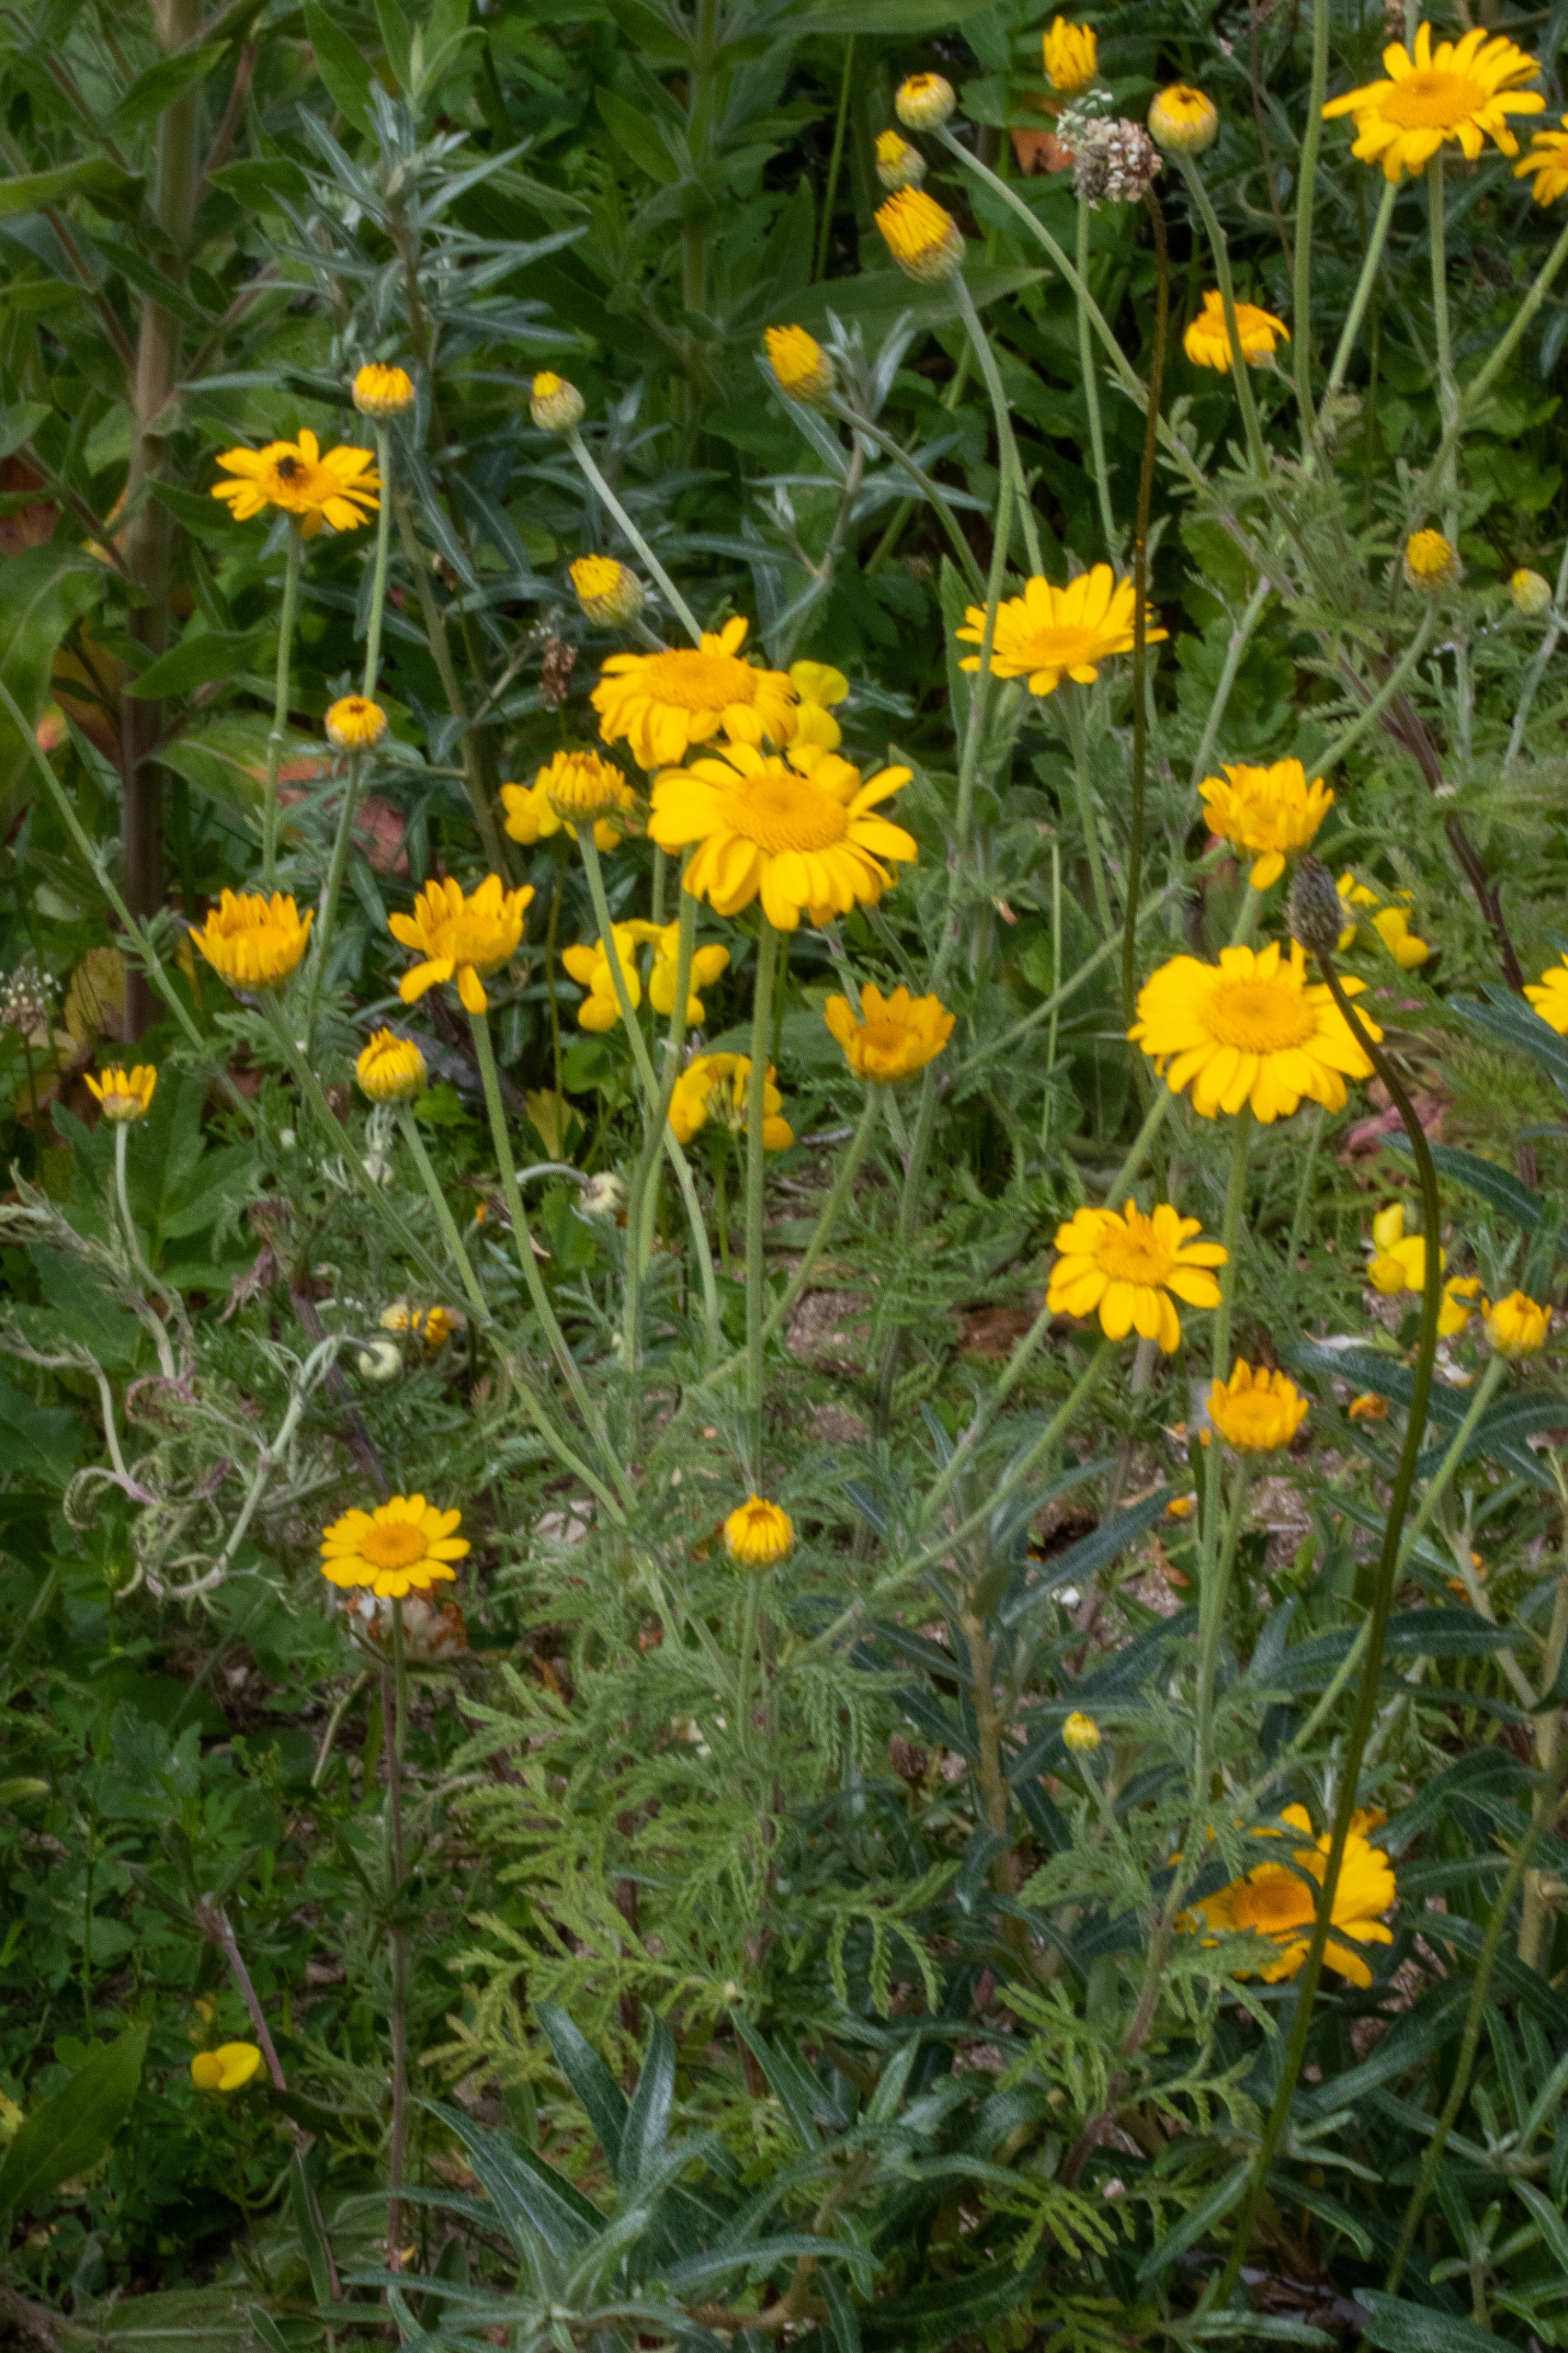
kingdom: Plantae
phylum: Tracheophyta
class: Magnoliopsida
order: Asterales
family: Asteraceae
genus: Cota
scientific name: Cota tinctoria
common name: Farve-gåseurt
